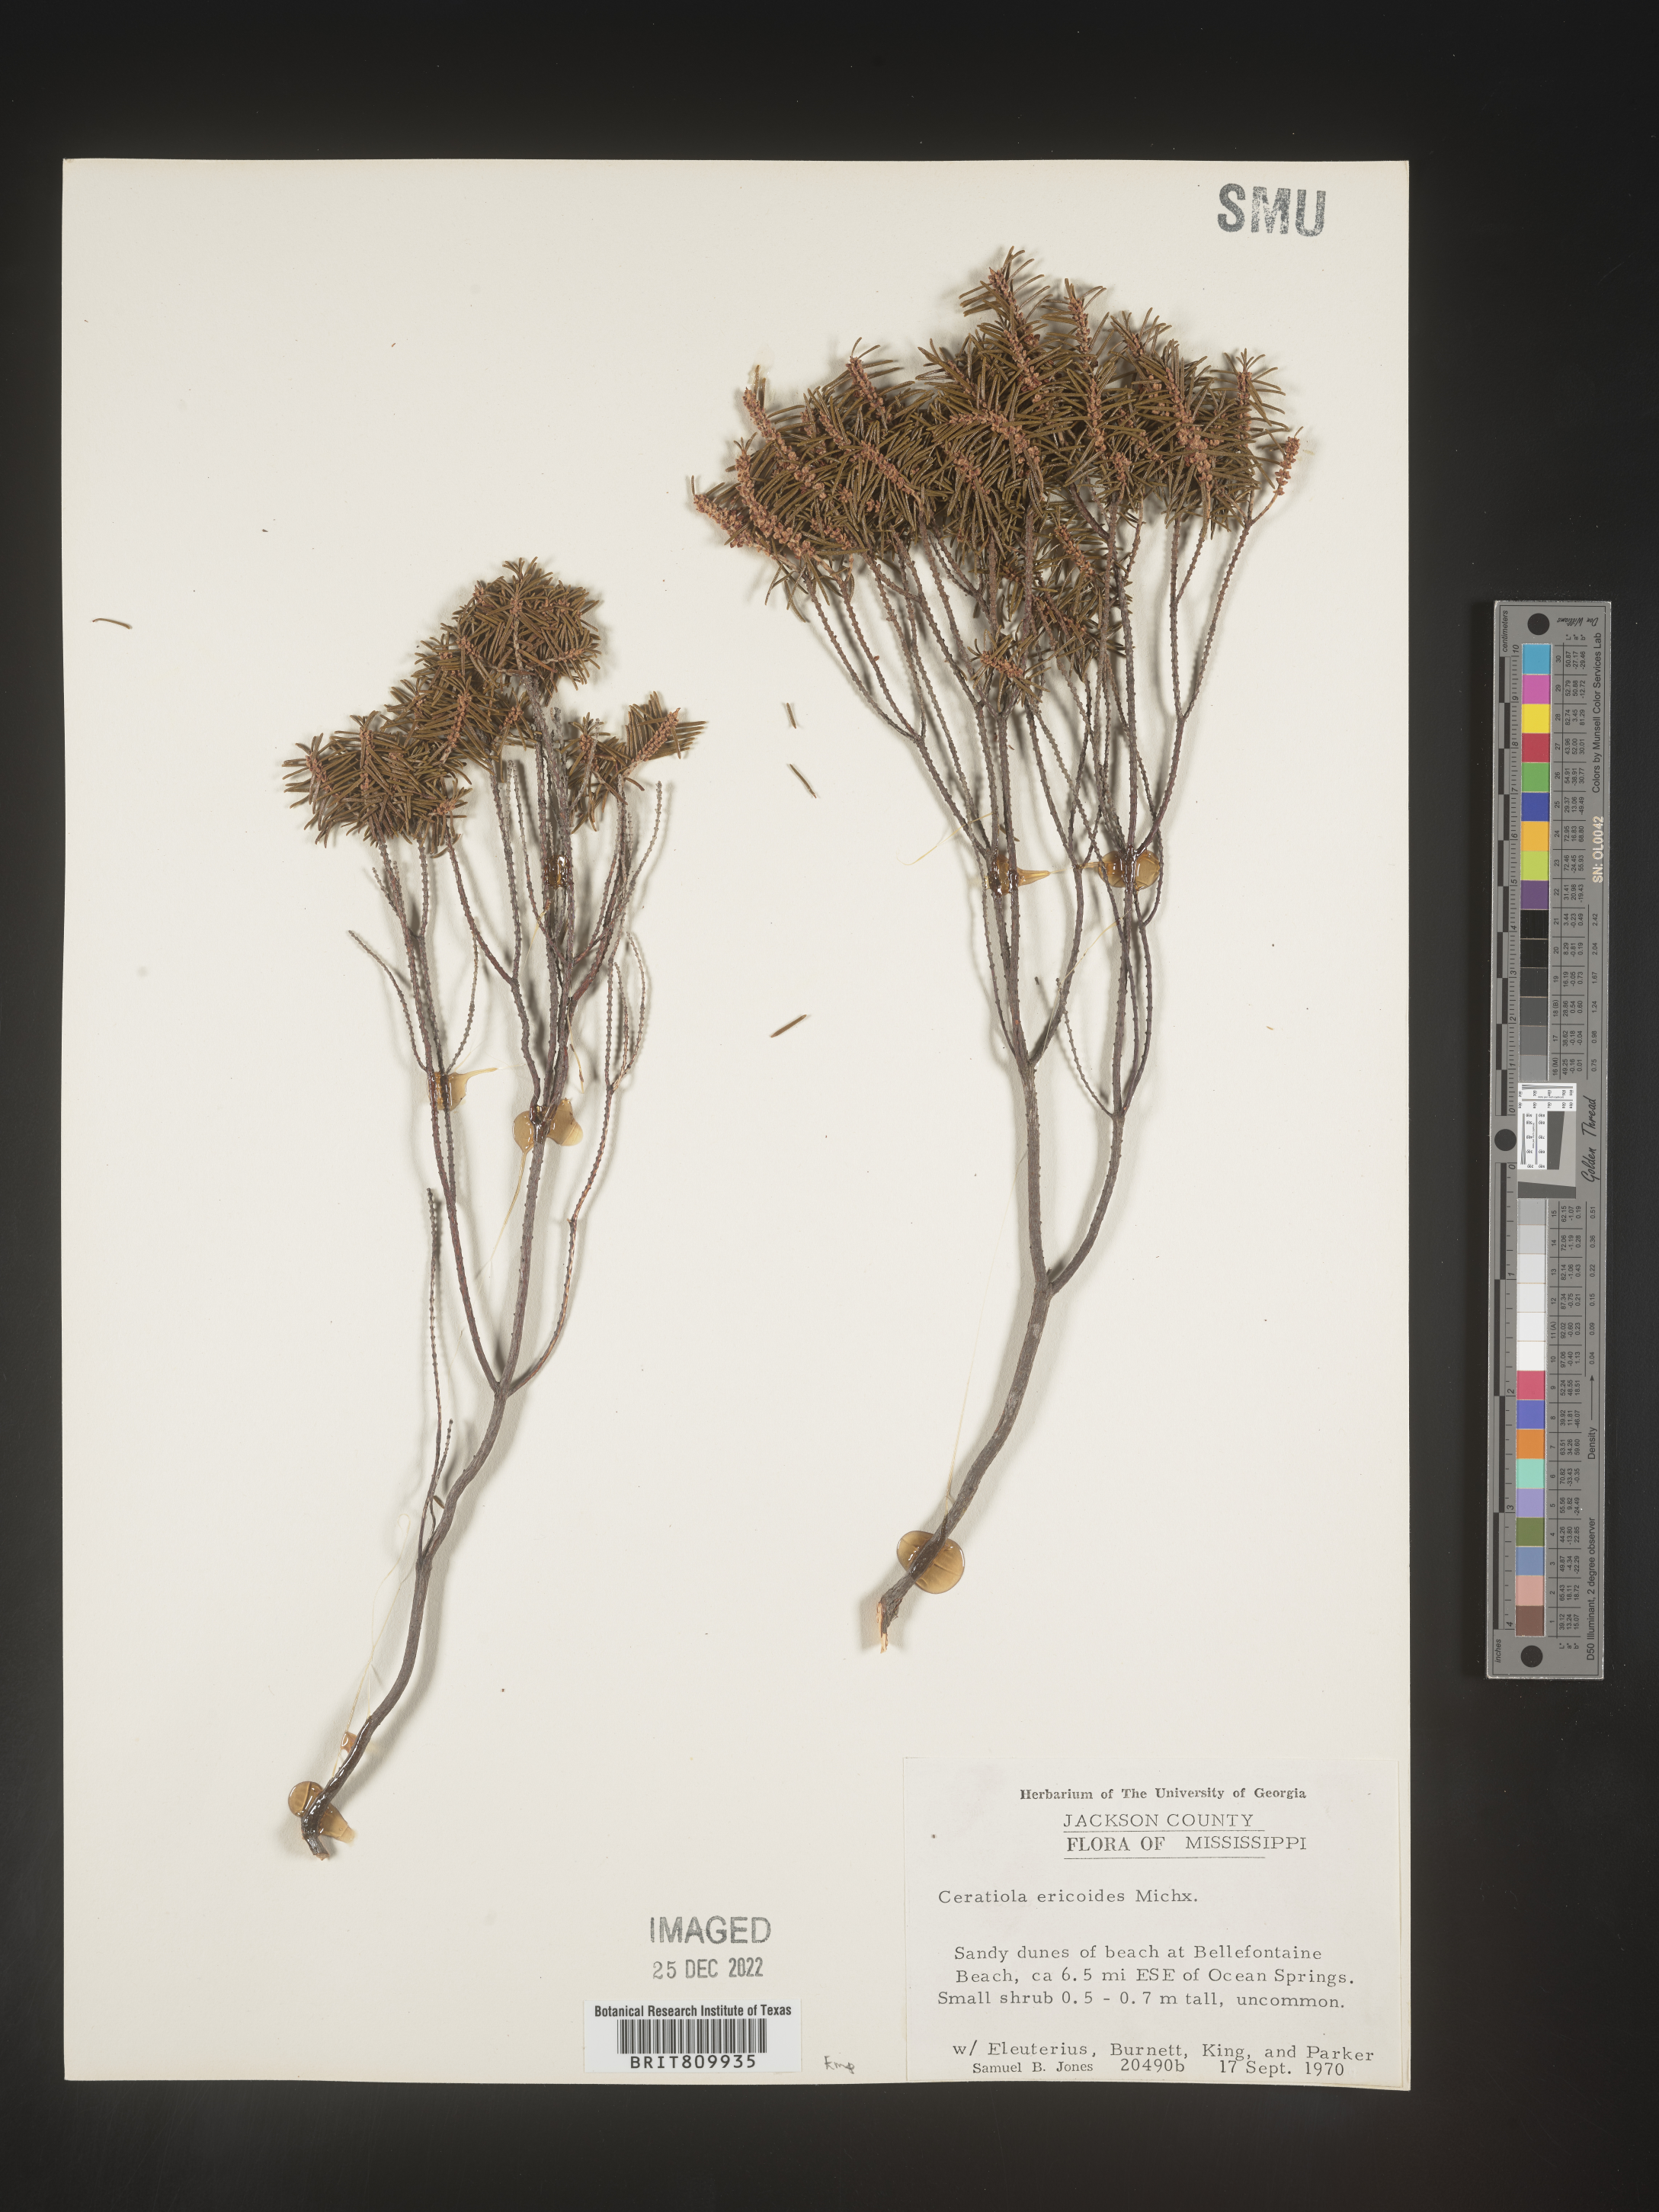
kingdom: Plantae
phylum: Tracheophyta
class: Magnoliopsida
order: Ericales
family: Ericaceae
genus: Ceratiola
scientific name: Ceratiola ericoides
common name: Sandhill-rosemary
